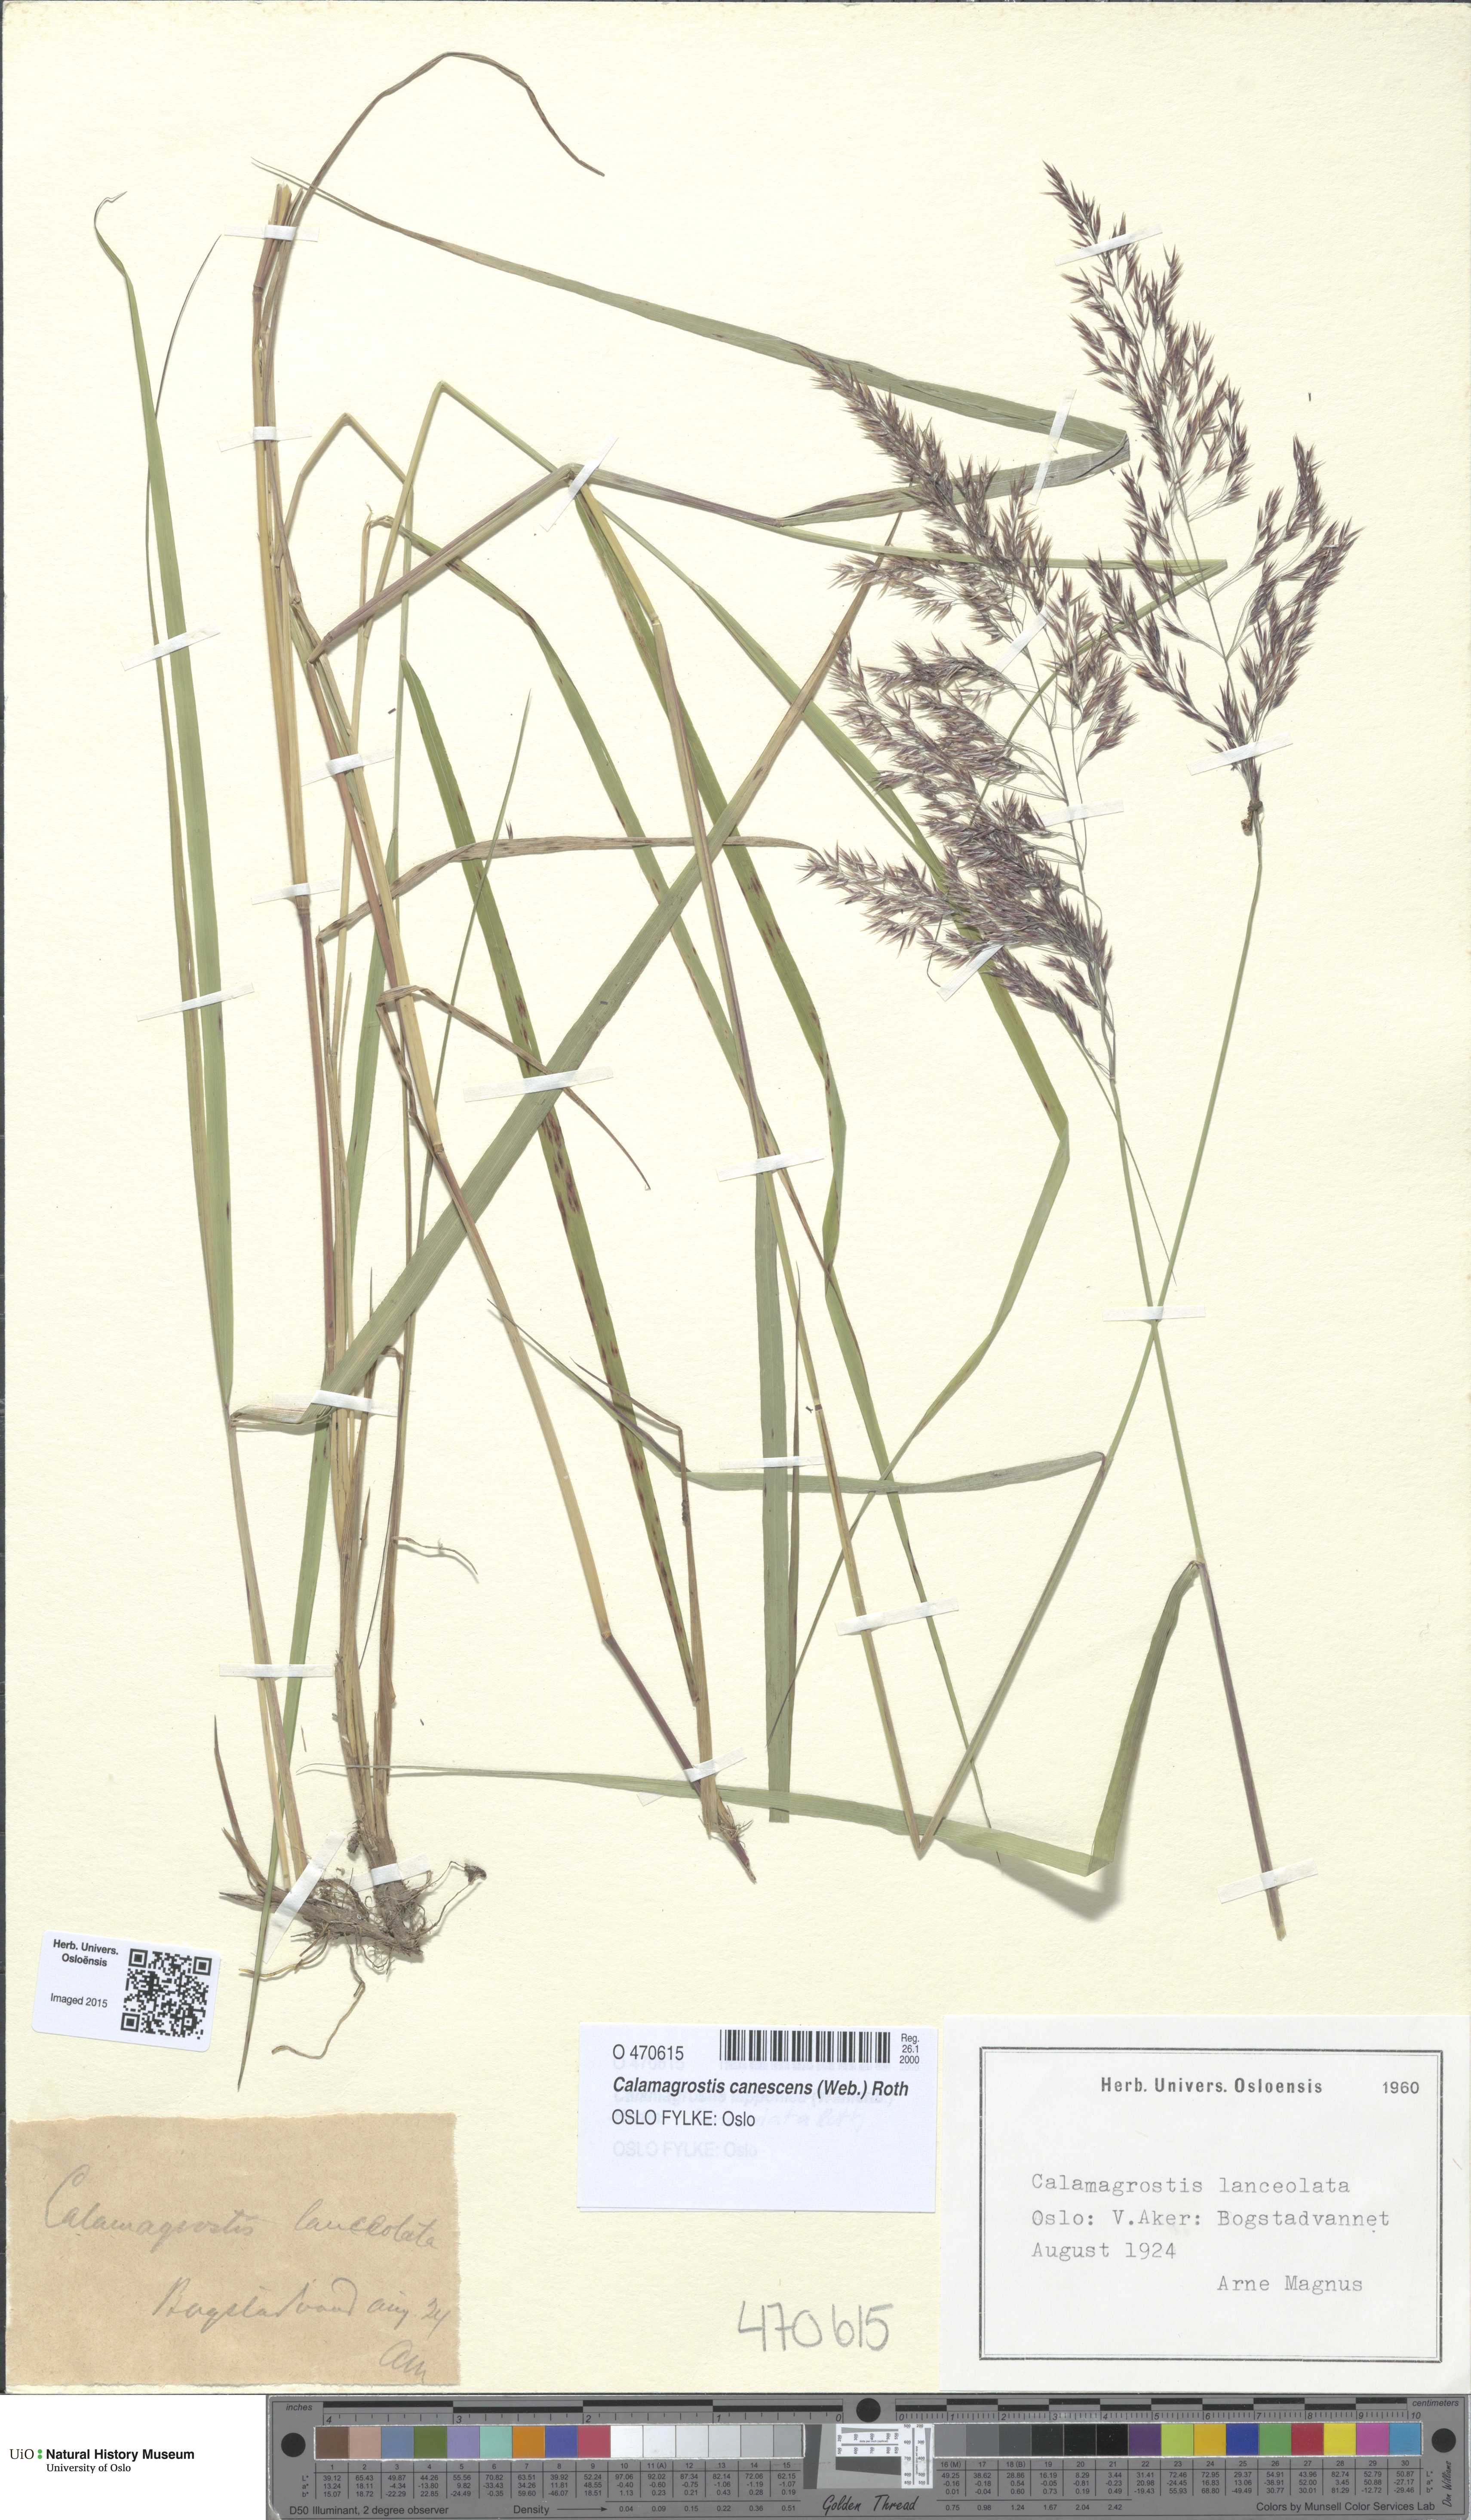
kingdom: Plantae
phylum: Tracheophyta
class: Liliopsida
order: Poales
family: Poaceae
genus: Calamagrostis
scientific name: Calamagrostis canescens
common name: Purple small-reed
